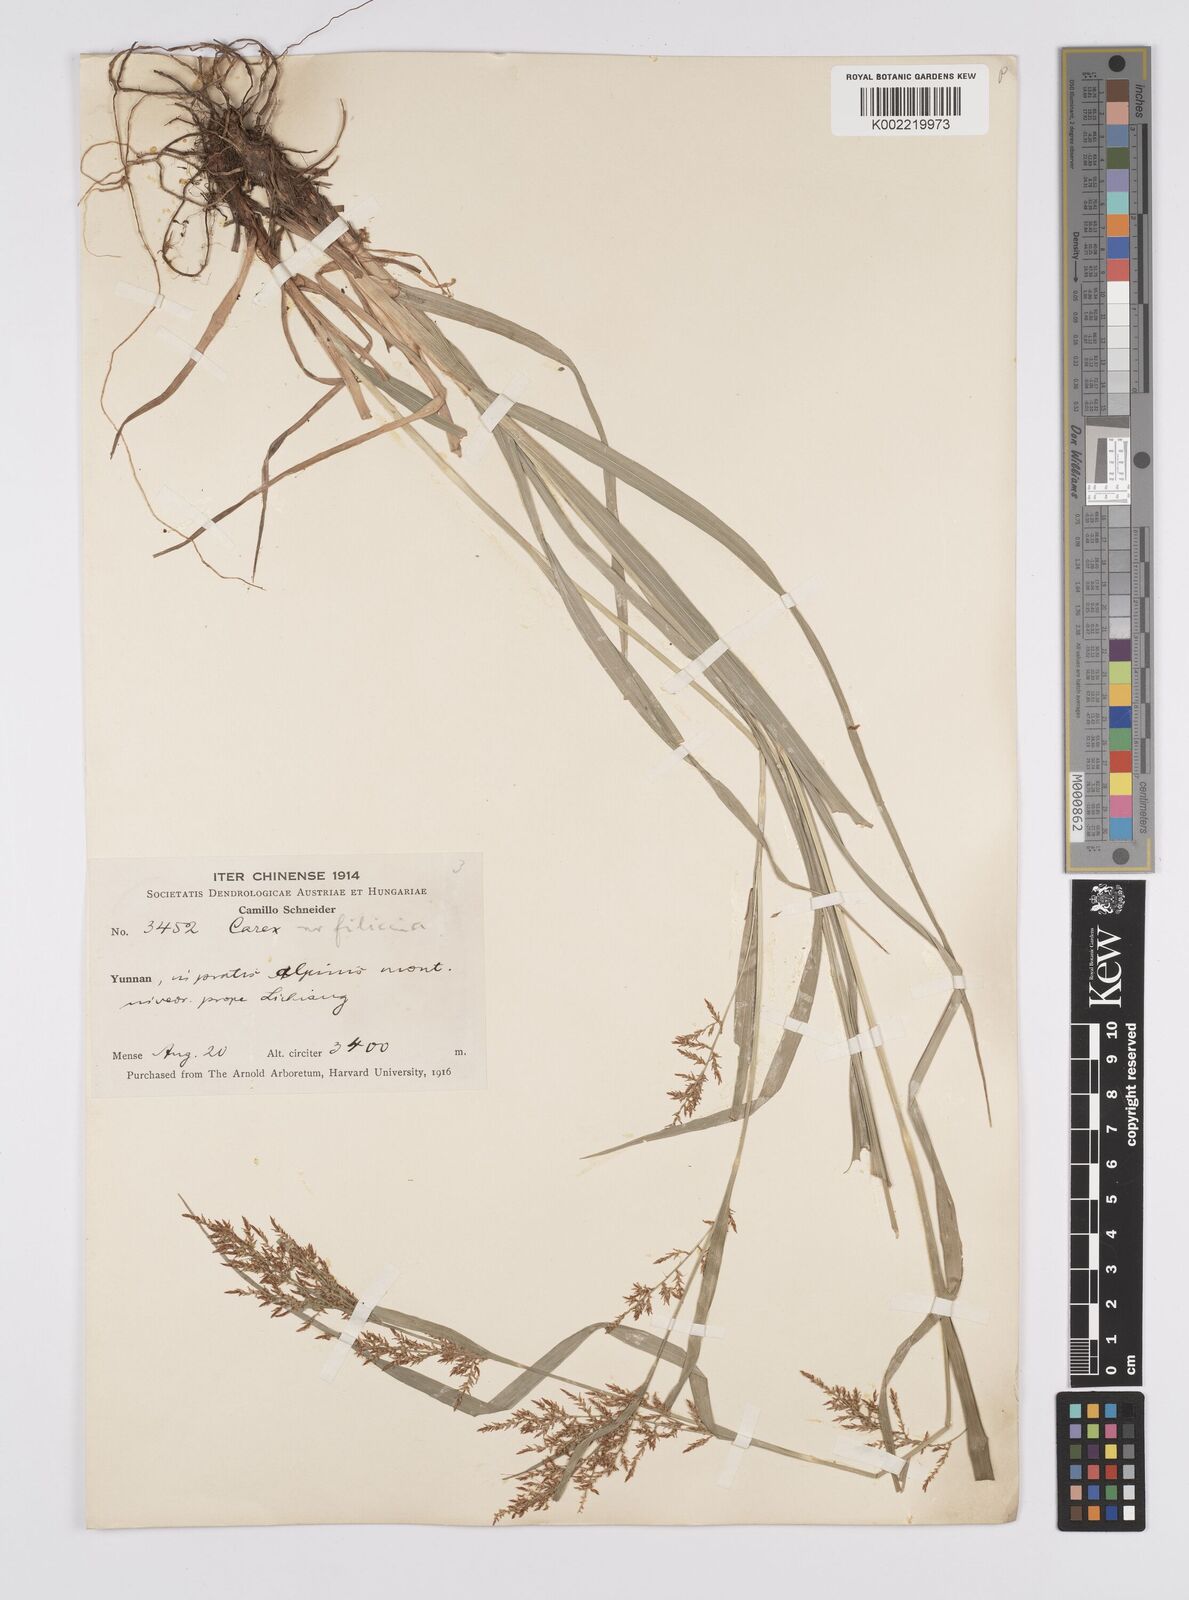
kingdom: Plantae
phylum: Tracheophyta
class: Liliopsida
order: Poales
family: Cyperaceae
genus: Carex
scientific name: Carex filicina
